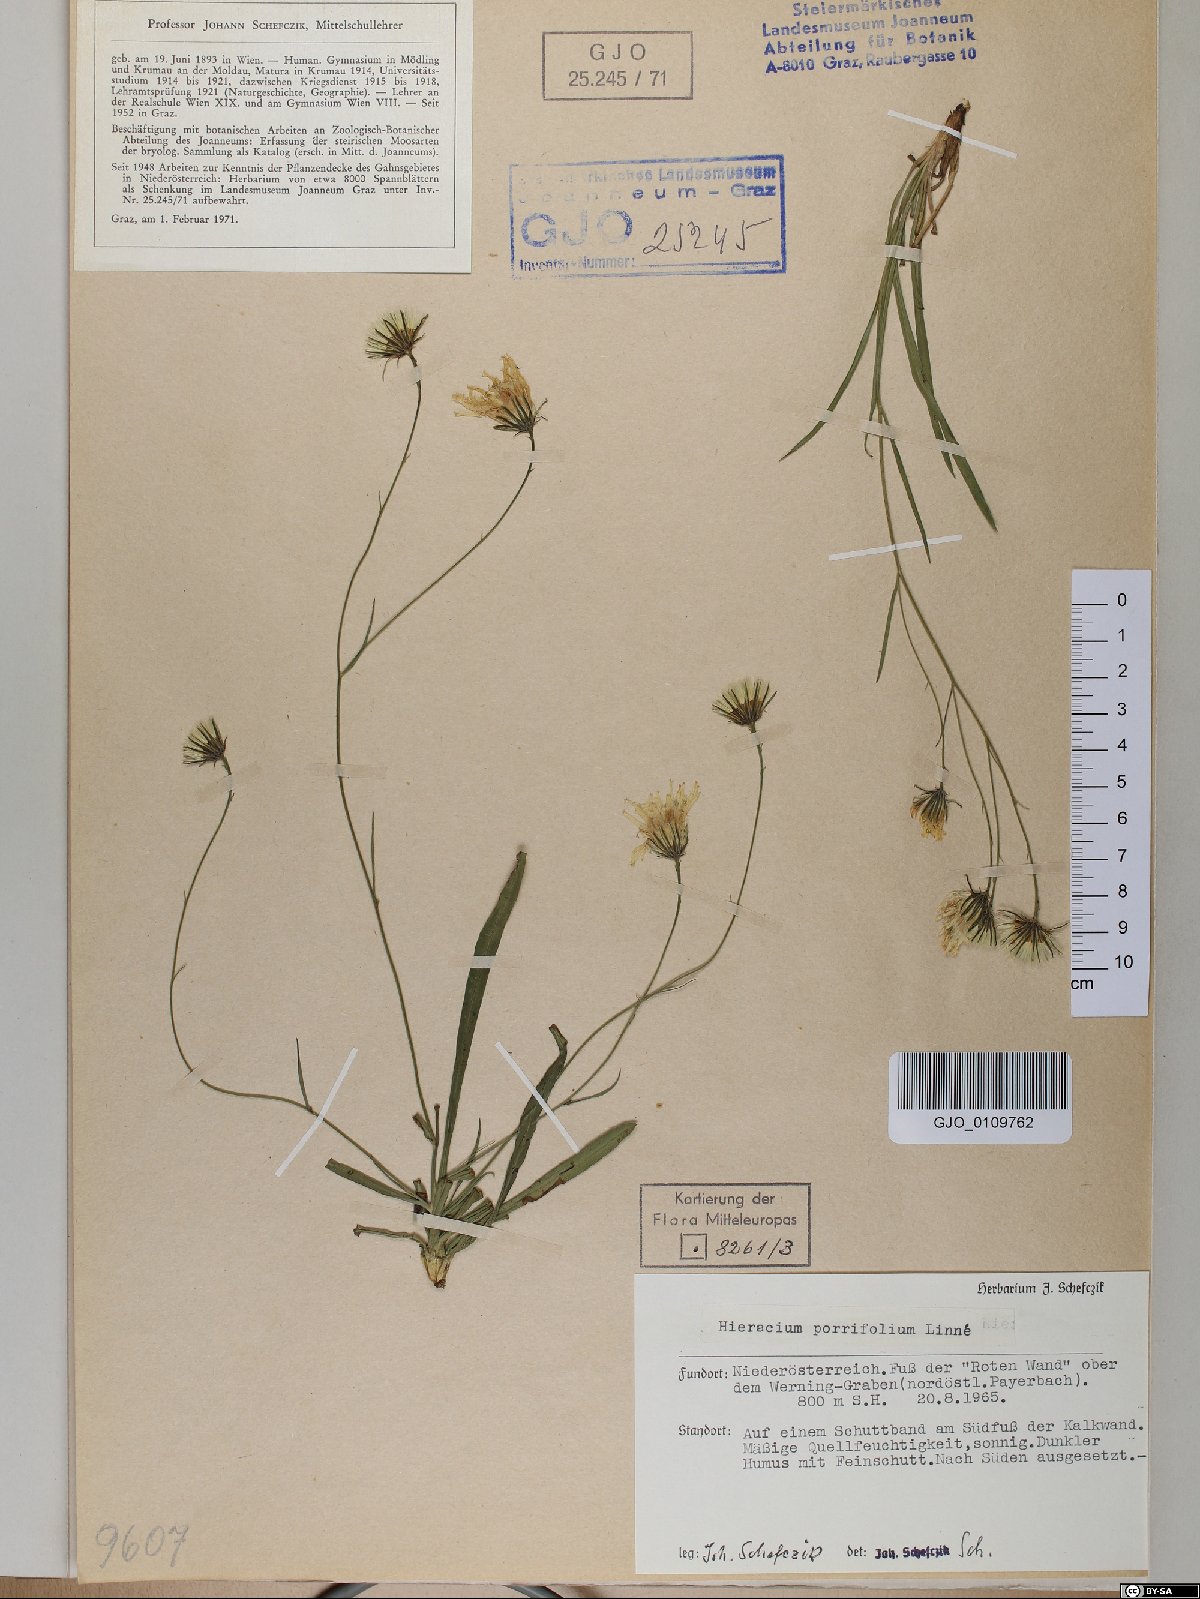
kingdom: Plantae
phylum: Tracheophyta
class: Magnoliopsida
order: Asterales
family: Asteraceae
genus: Hieracium
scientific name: Hieracium porrifolium
